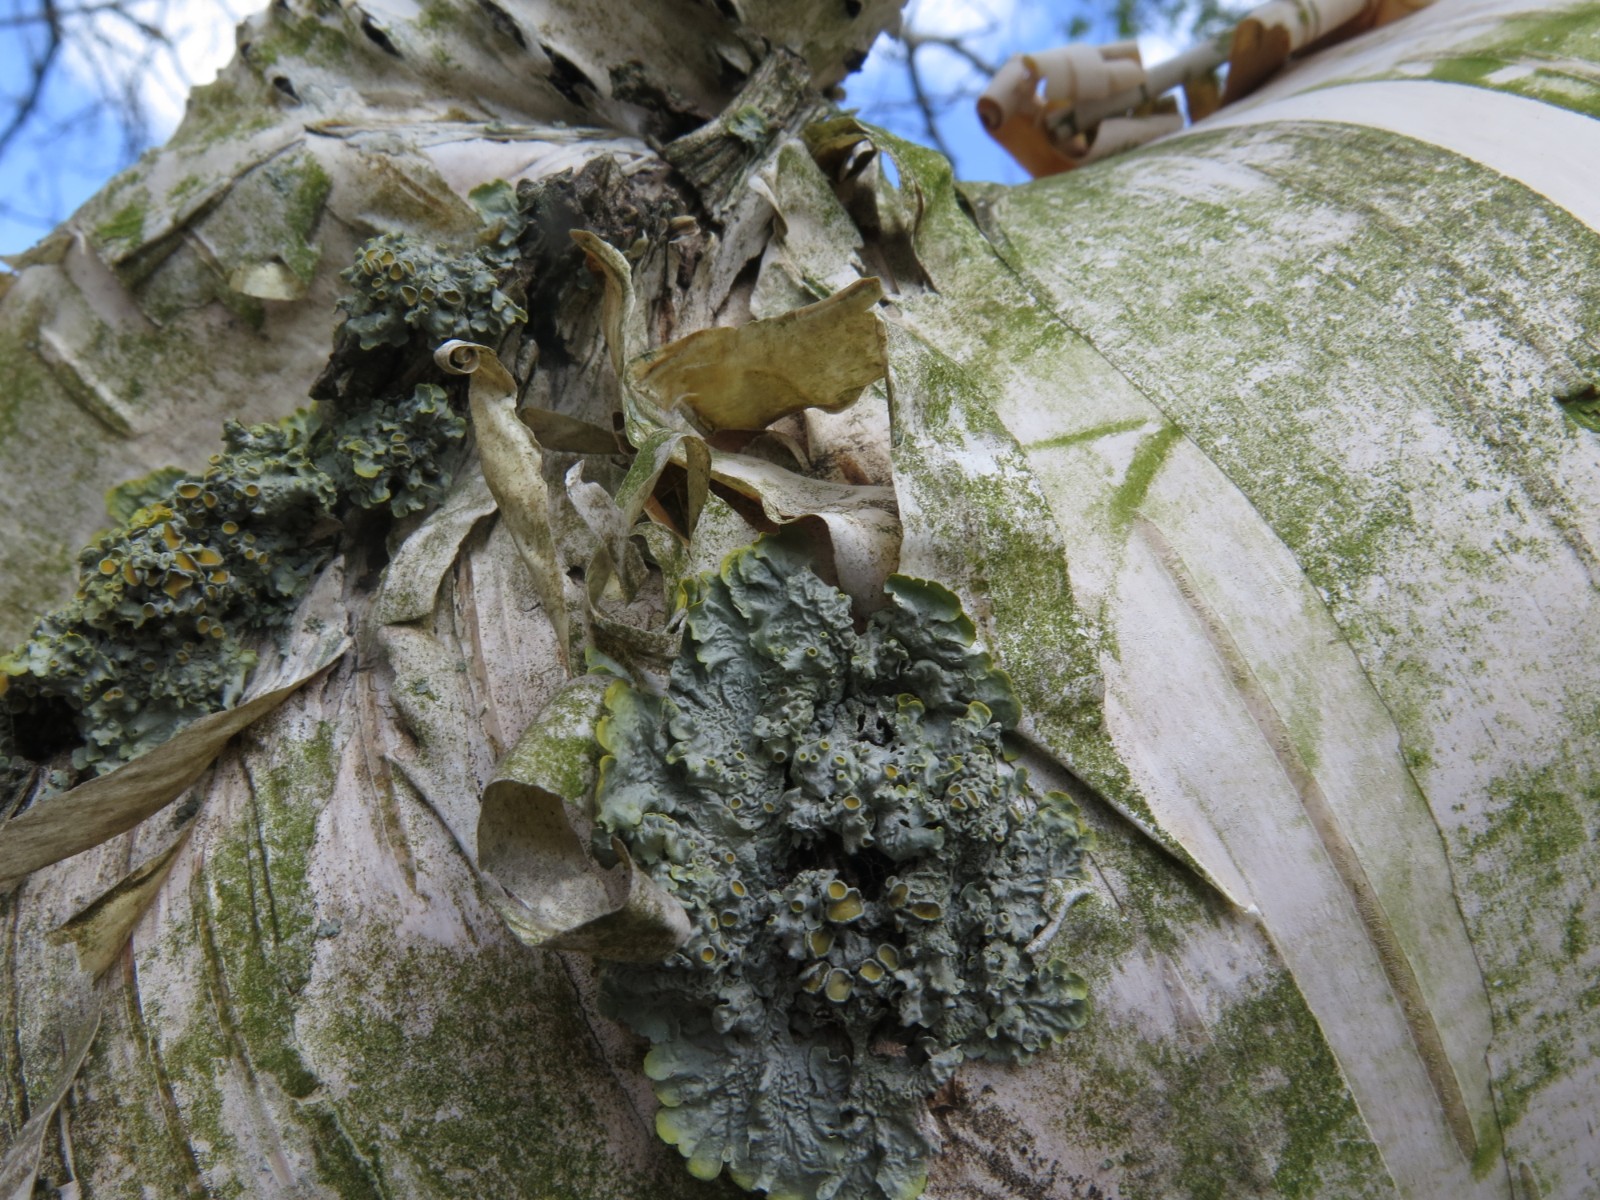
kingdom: Fungi
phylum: Ascomycota
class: Lecanoromycetes
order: Teloschistales
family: Teloschistaceae
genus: Xanthoria
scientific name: Xanthoria parietina
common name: almindelig væggelav
